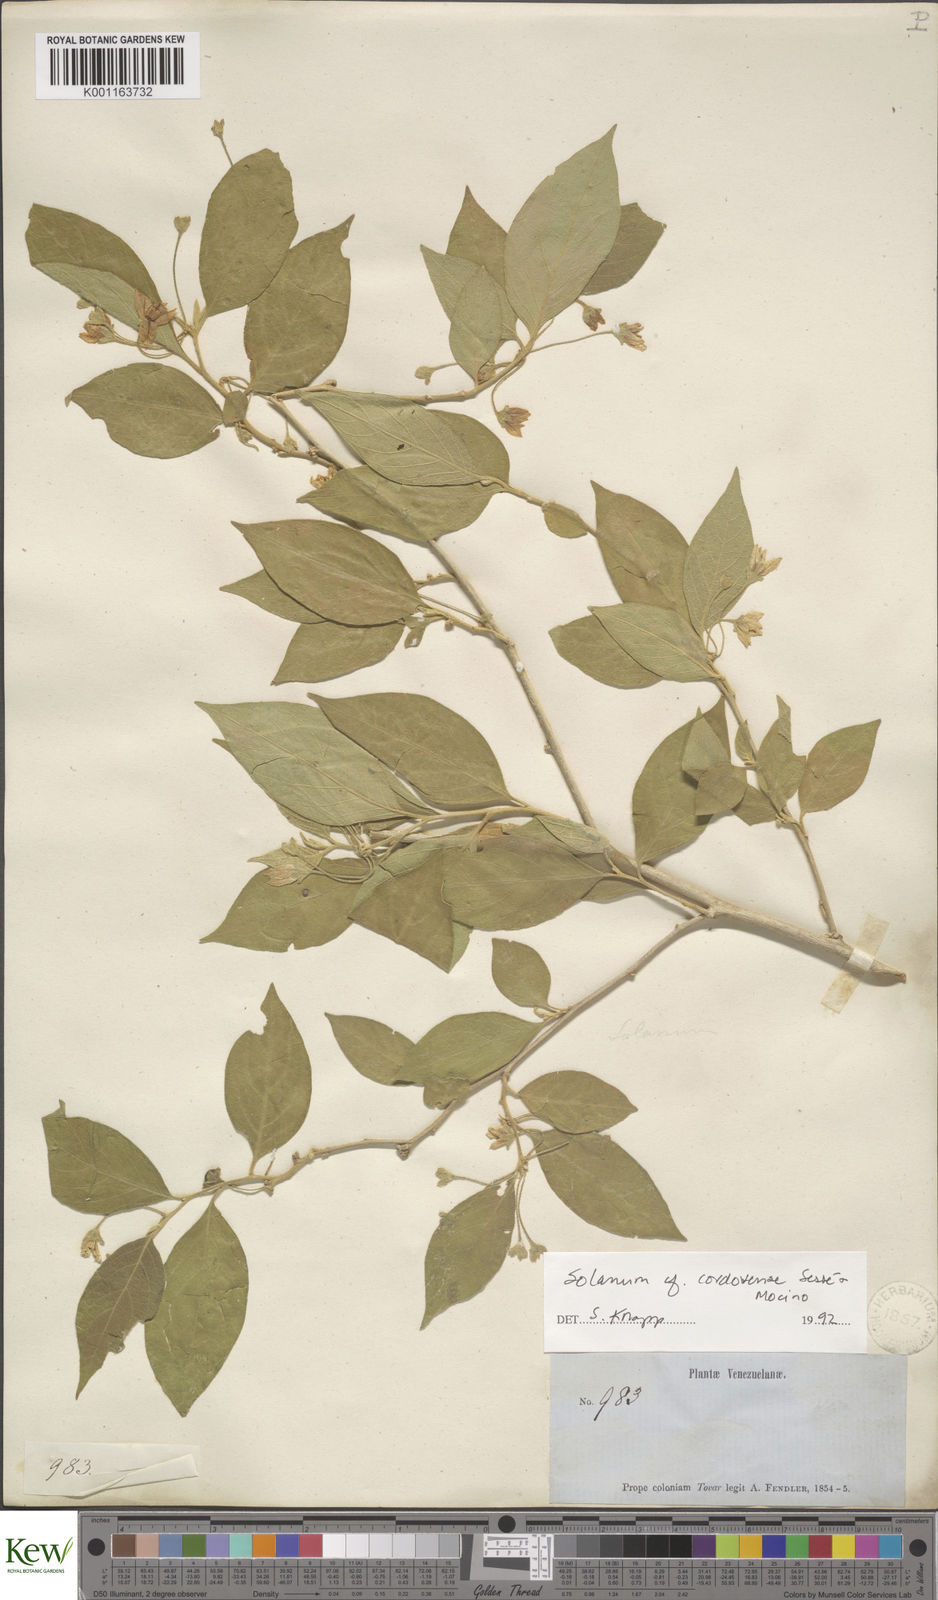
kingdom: Plantae
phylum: Tracheophyta
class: Magnoliopsida
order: Solanales
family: Solanaceae
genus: Solanum
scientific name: Solanum
